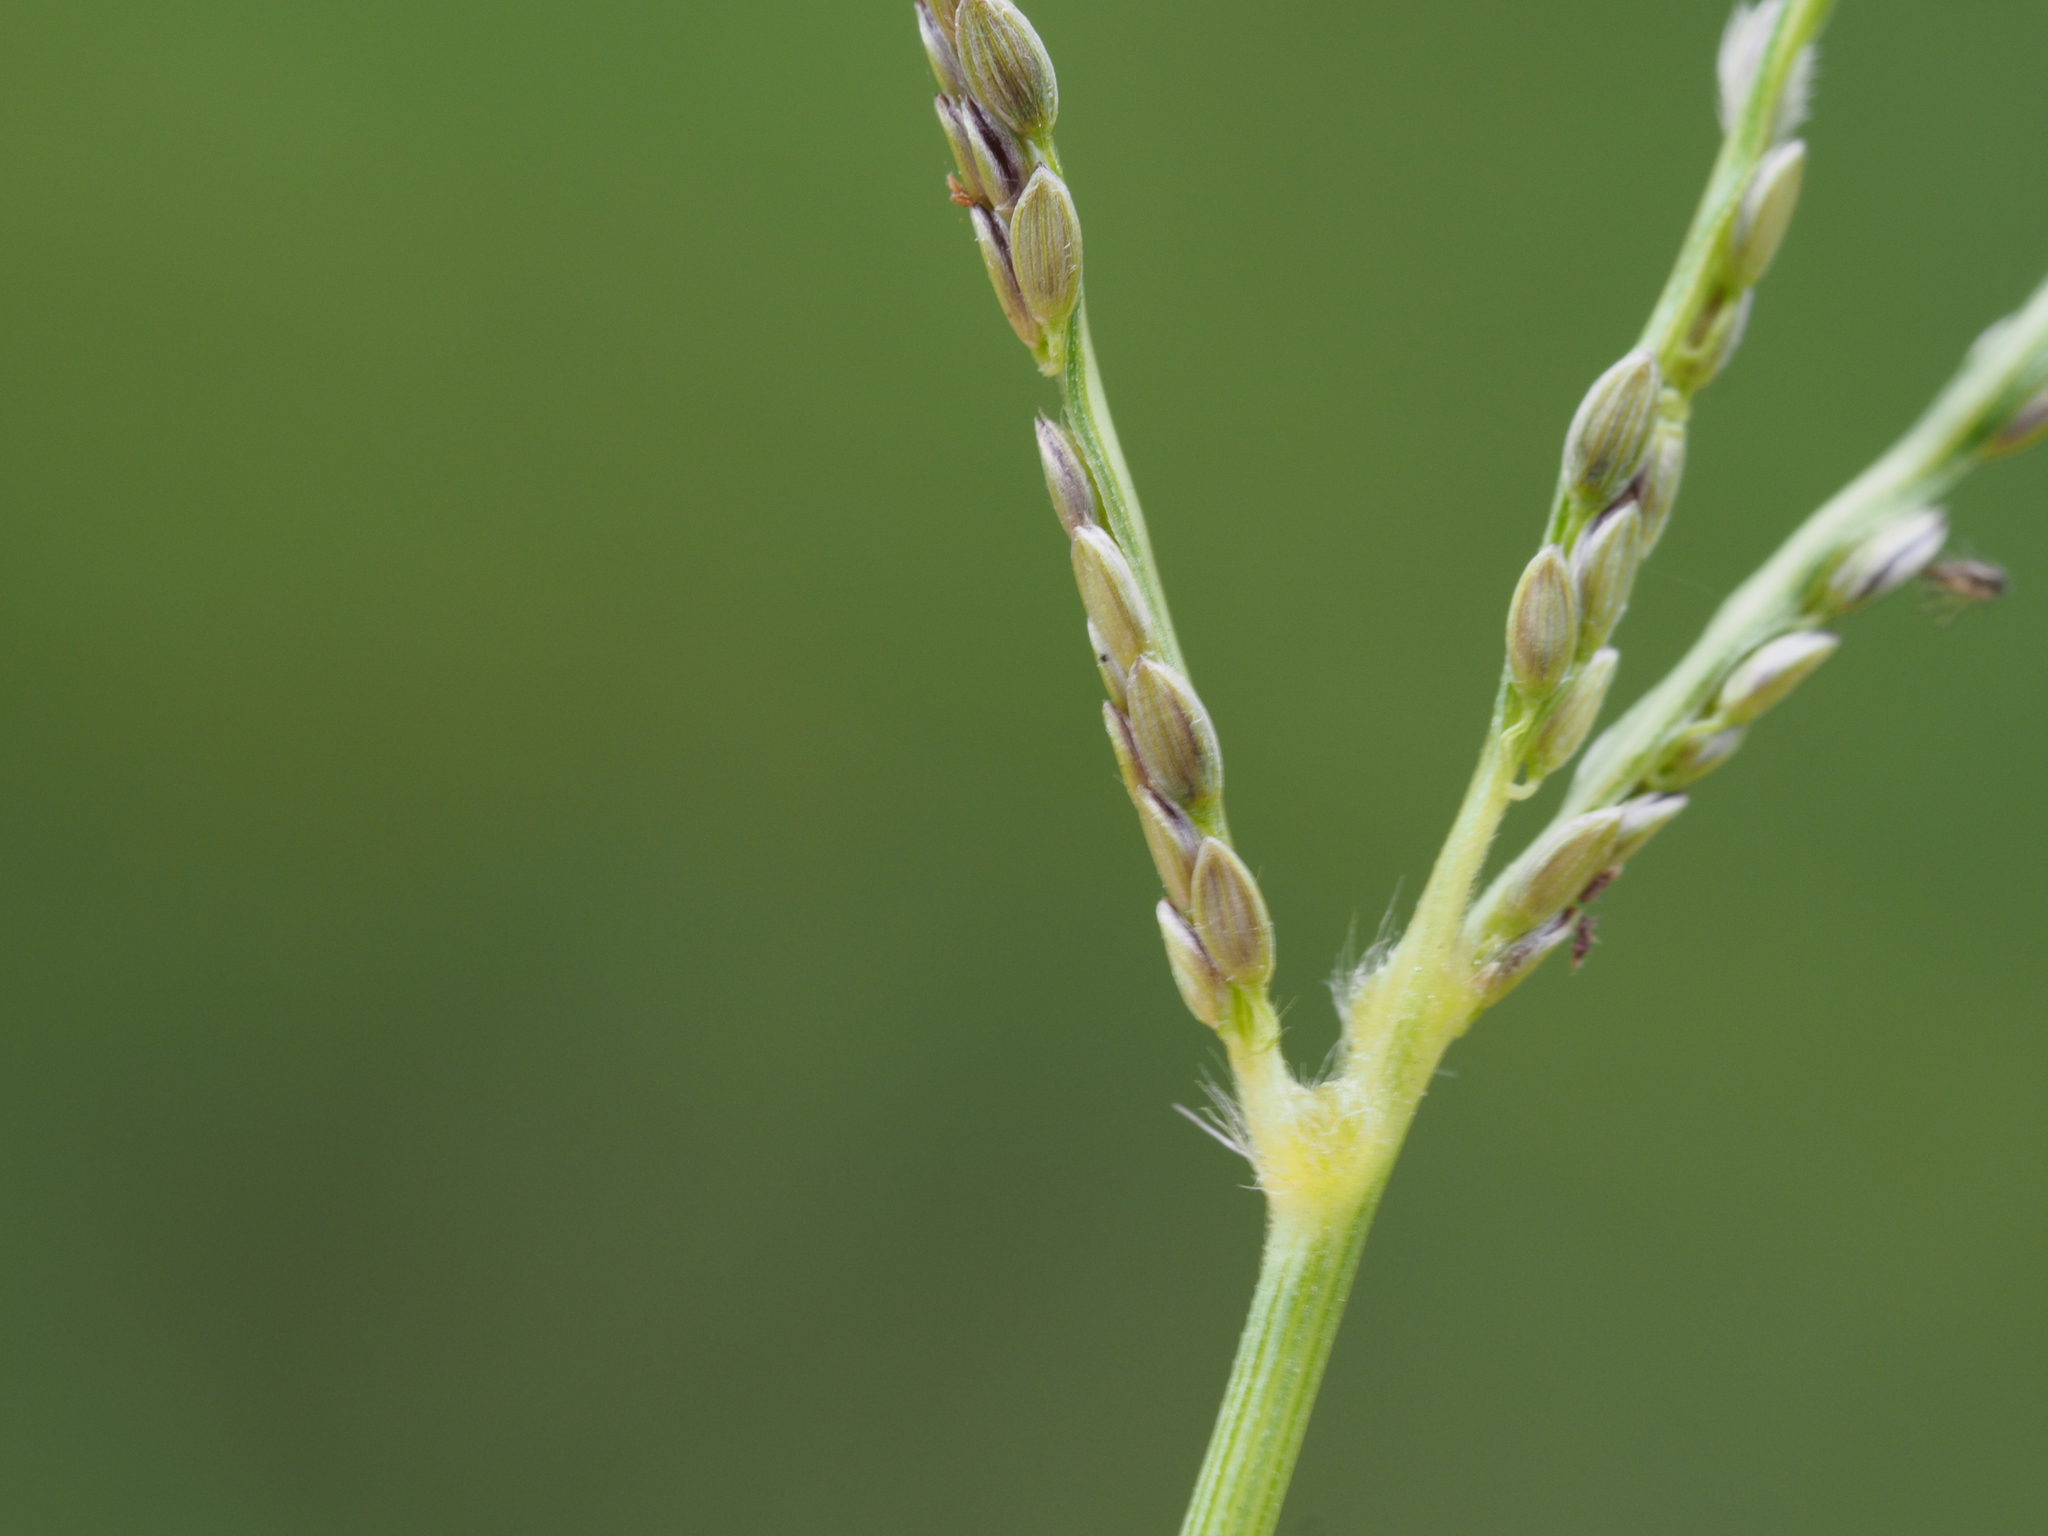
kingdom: Plantae
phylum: Tracheophyta
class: Liliopsida
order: Poales
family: Poaceae
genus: Digitaria
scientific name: Digitaria leptalea
